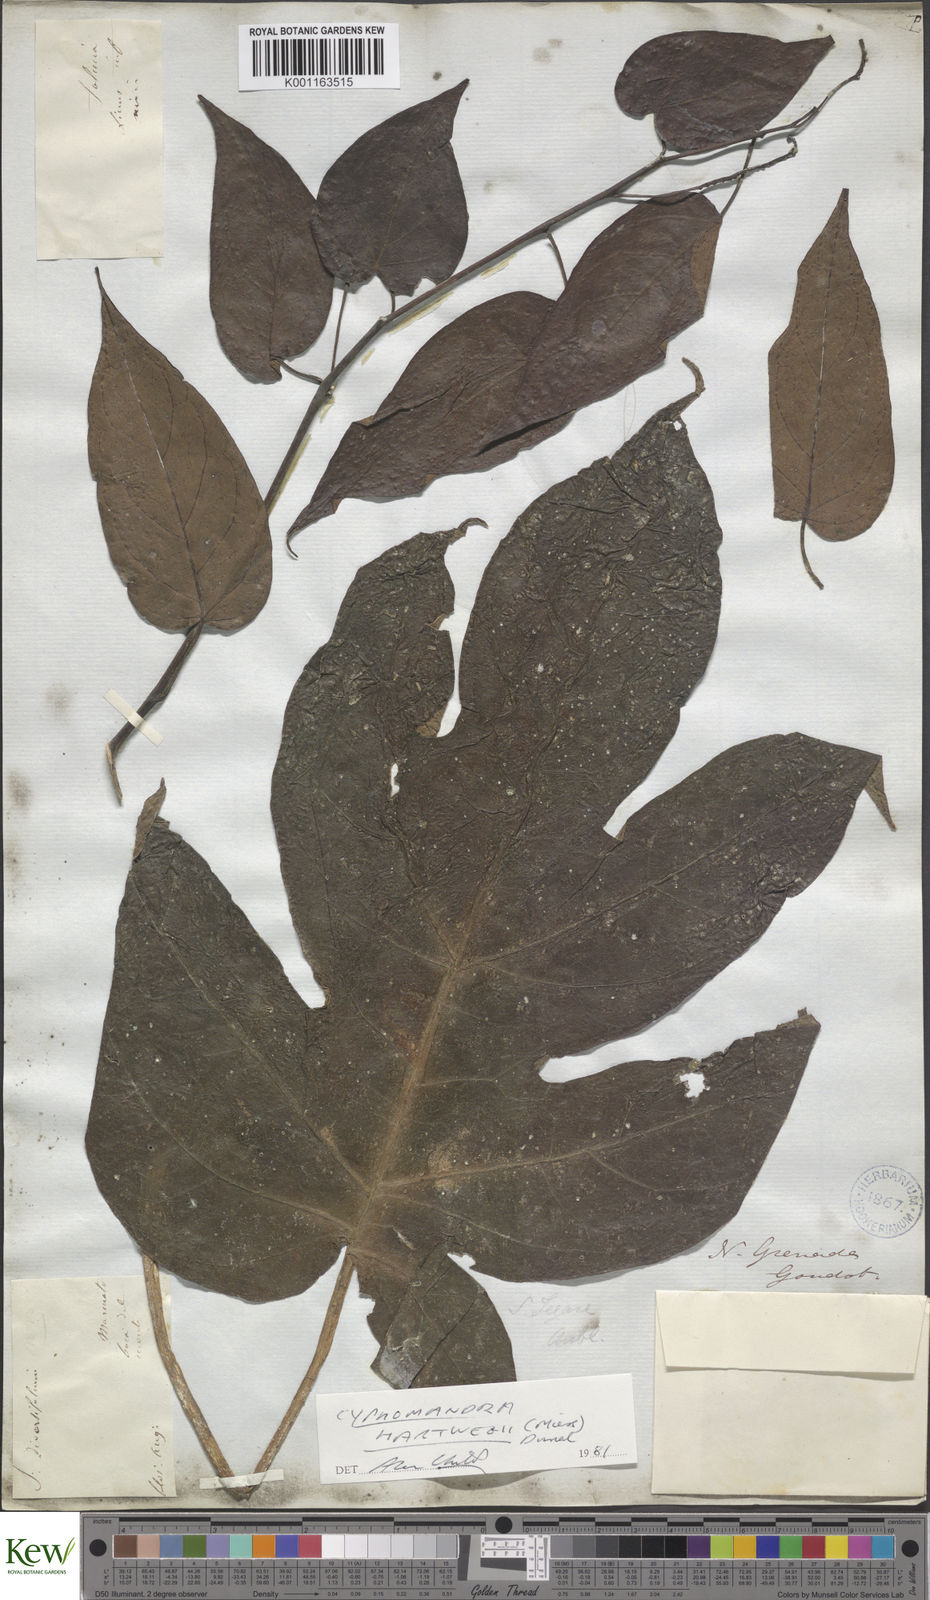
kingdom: Plantae
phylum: Tracheophyta
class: Magnoliopsida
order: Solanales
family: Solanaceae
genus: Solanum
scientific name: Solanum splendens
